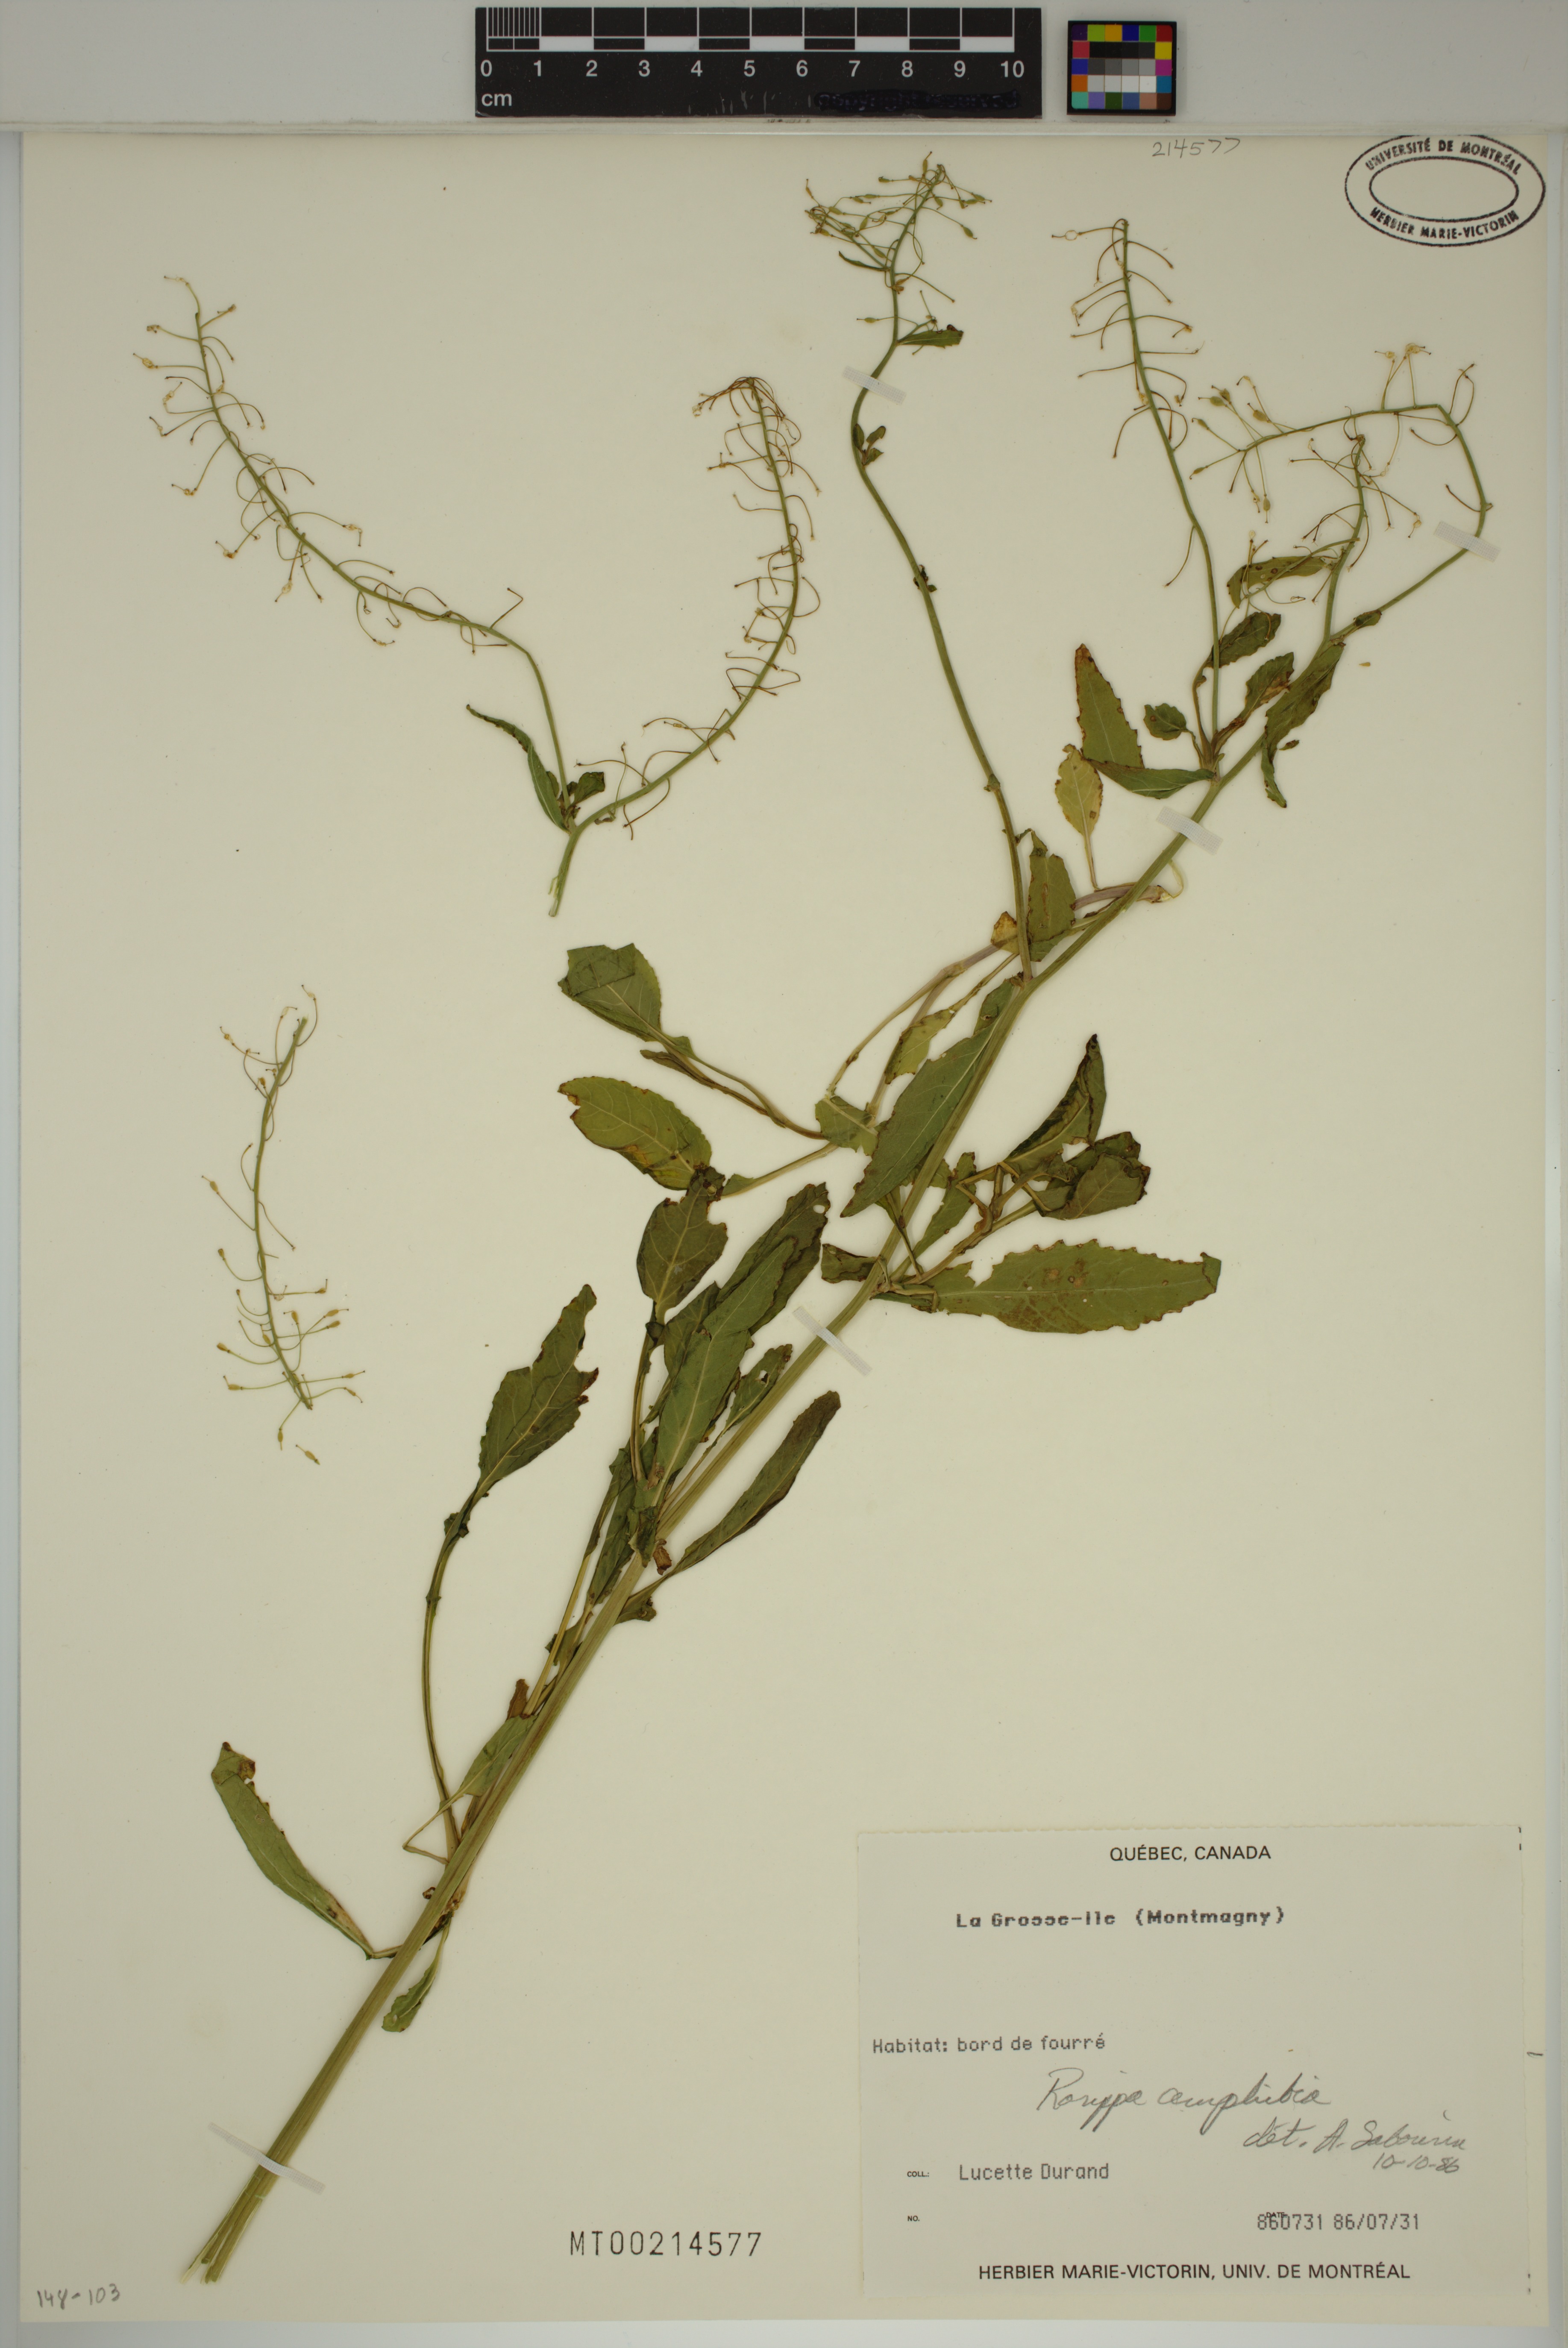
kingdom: Plantae
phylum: Tracheophyta
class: Magnoliopsida
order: Brassicales
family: Brassicaceae
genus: Rorippa
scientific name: Rorippa amphibia
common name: Great yellow-cress
